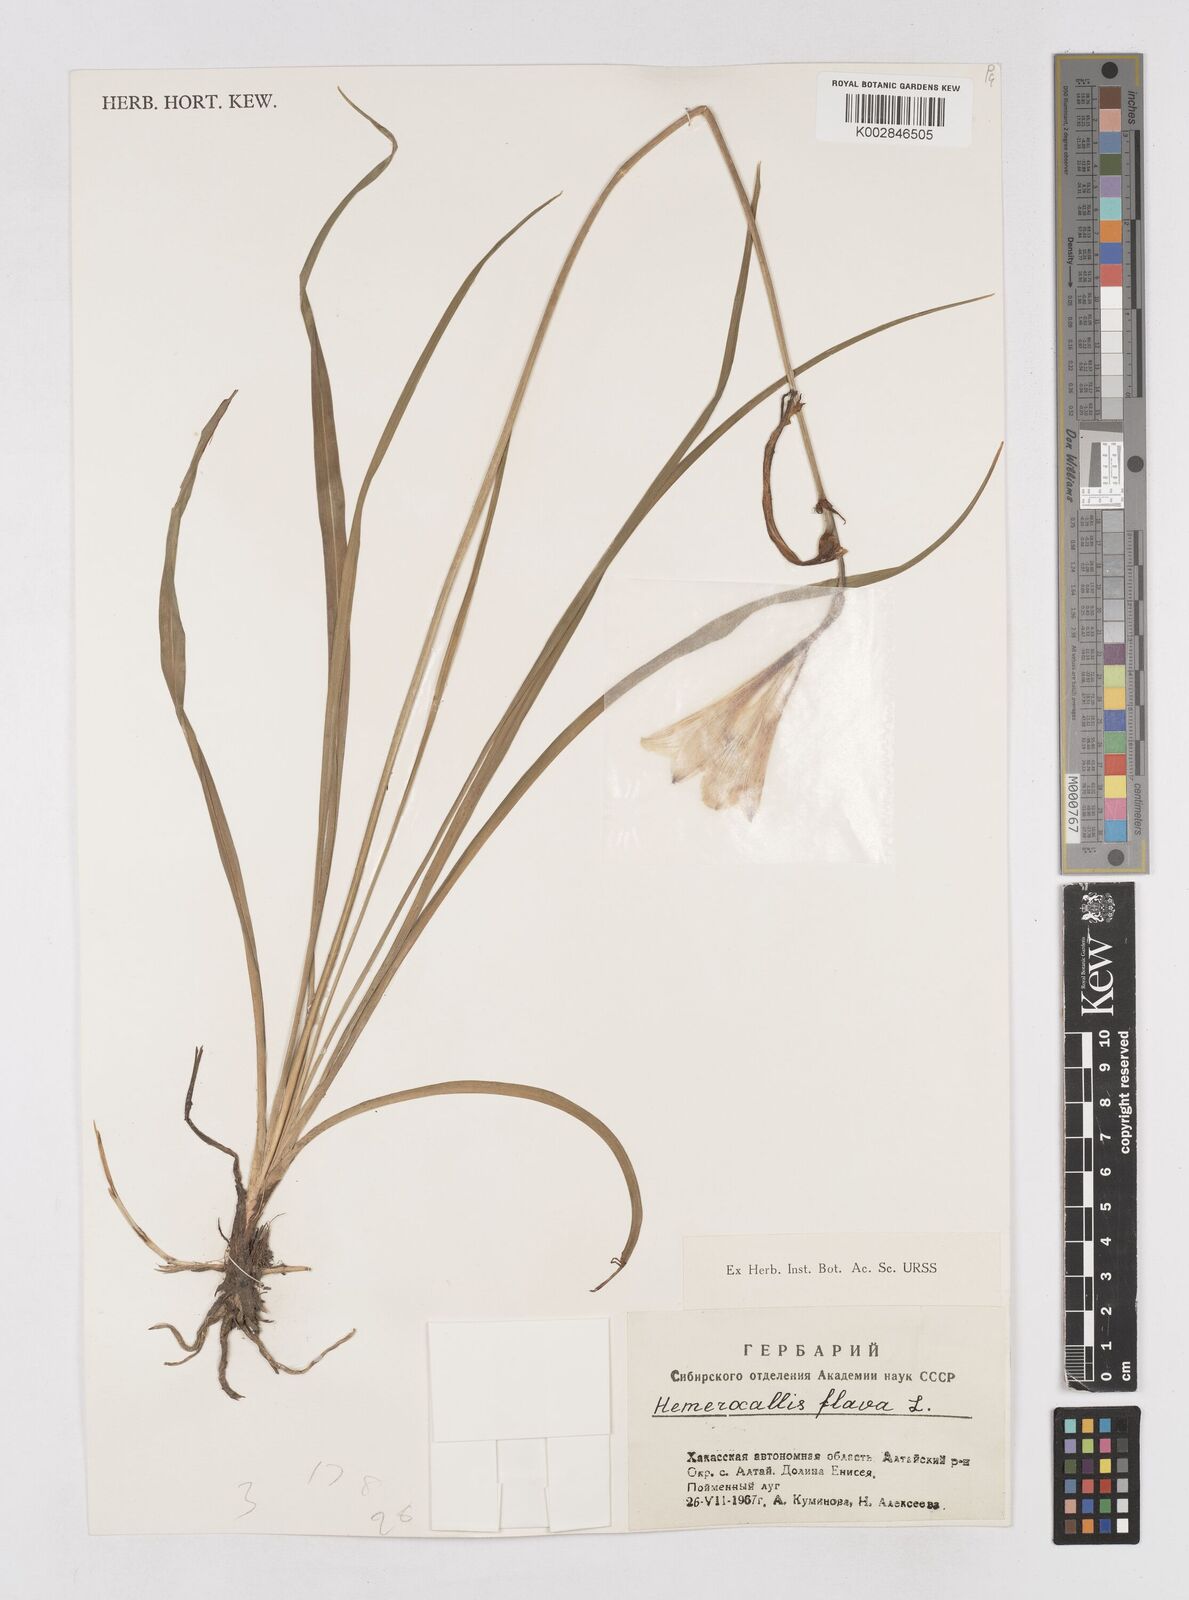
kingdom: Plantae
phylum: Tracheophyta
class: Liliopsida
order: Asparagales
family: Asphodelaceae
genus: Hemerocallis
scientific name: Hemerocallis minor
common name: Small daylily
